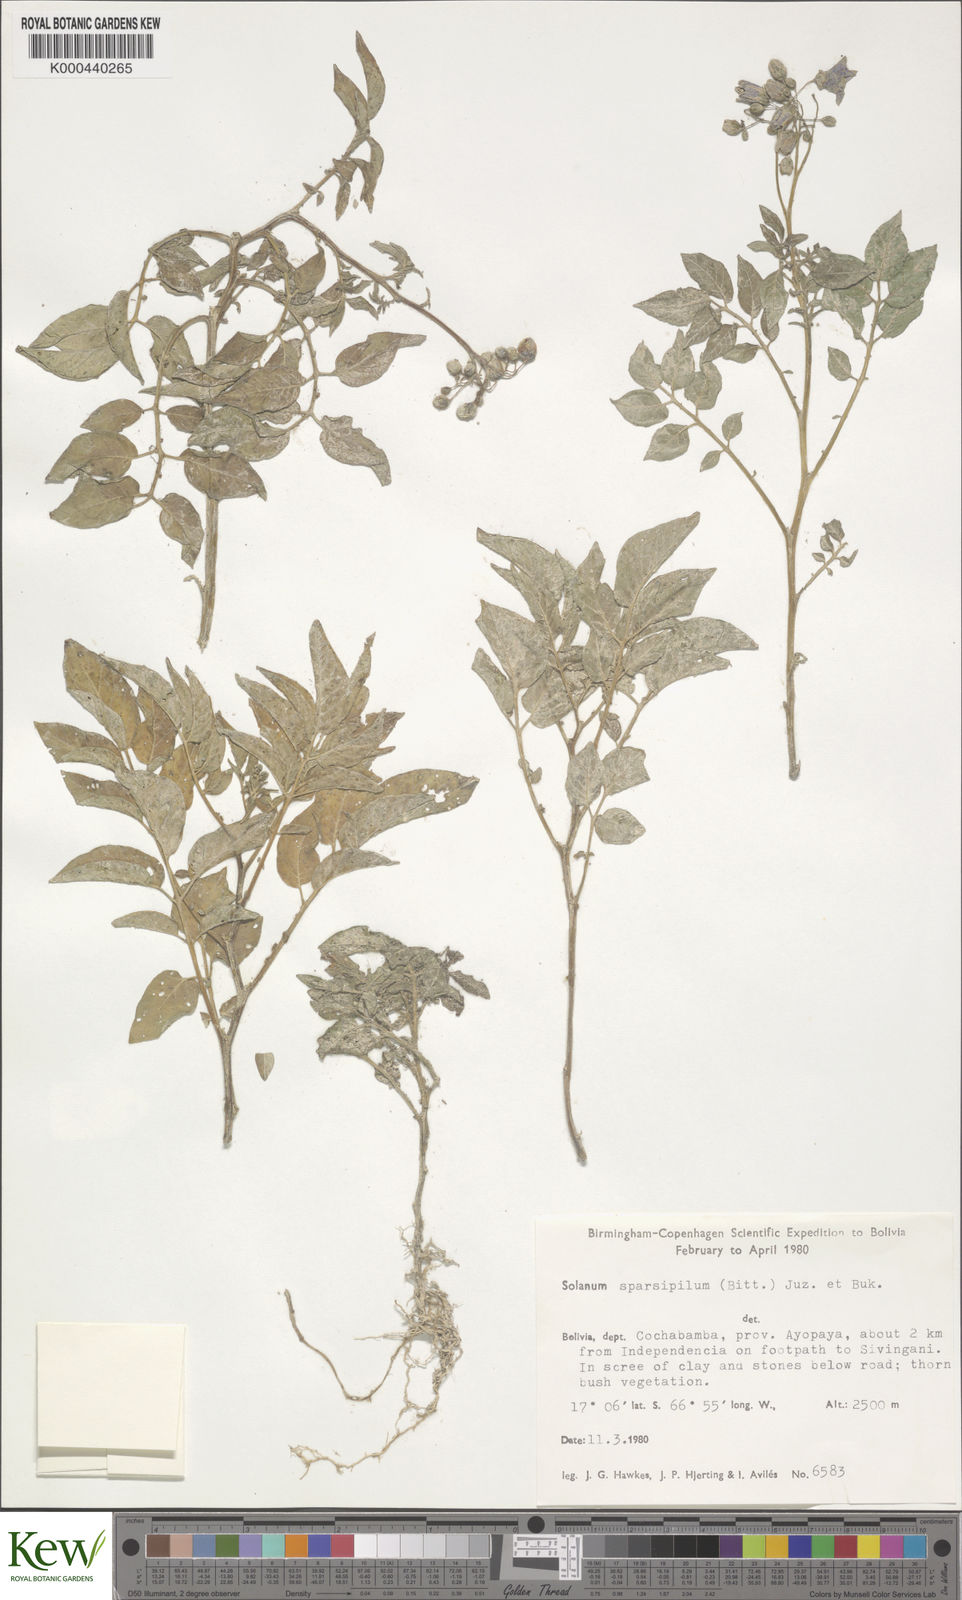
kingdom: Plantae
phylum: Tracheophyta
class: Magnoliopsida
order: Solanales
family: Solanaceae
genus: Solanum
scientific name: Solanum brevicaule
